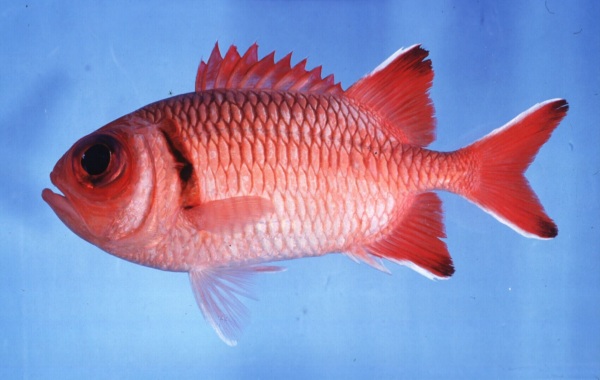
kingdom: Animalia
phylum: Chordata
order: Beryciformes
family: Holocentridae
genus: Myripristis
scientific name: Myripristis botche
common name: Blacktip soldierfish
